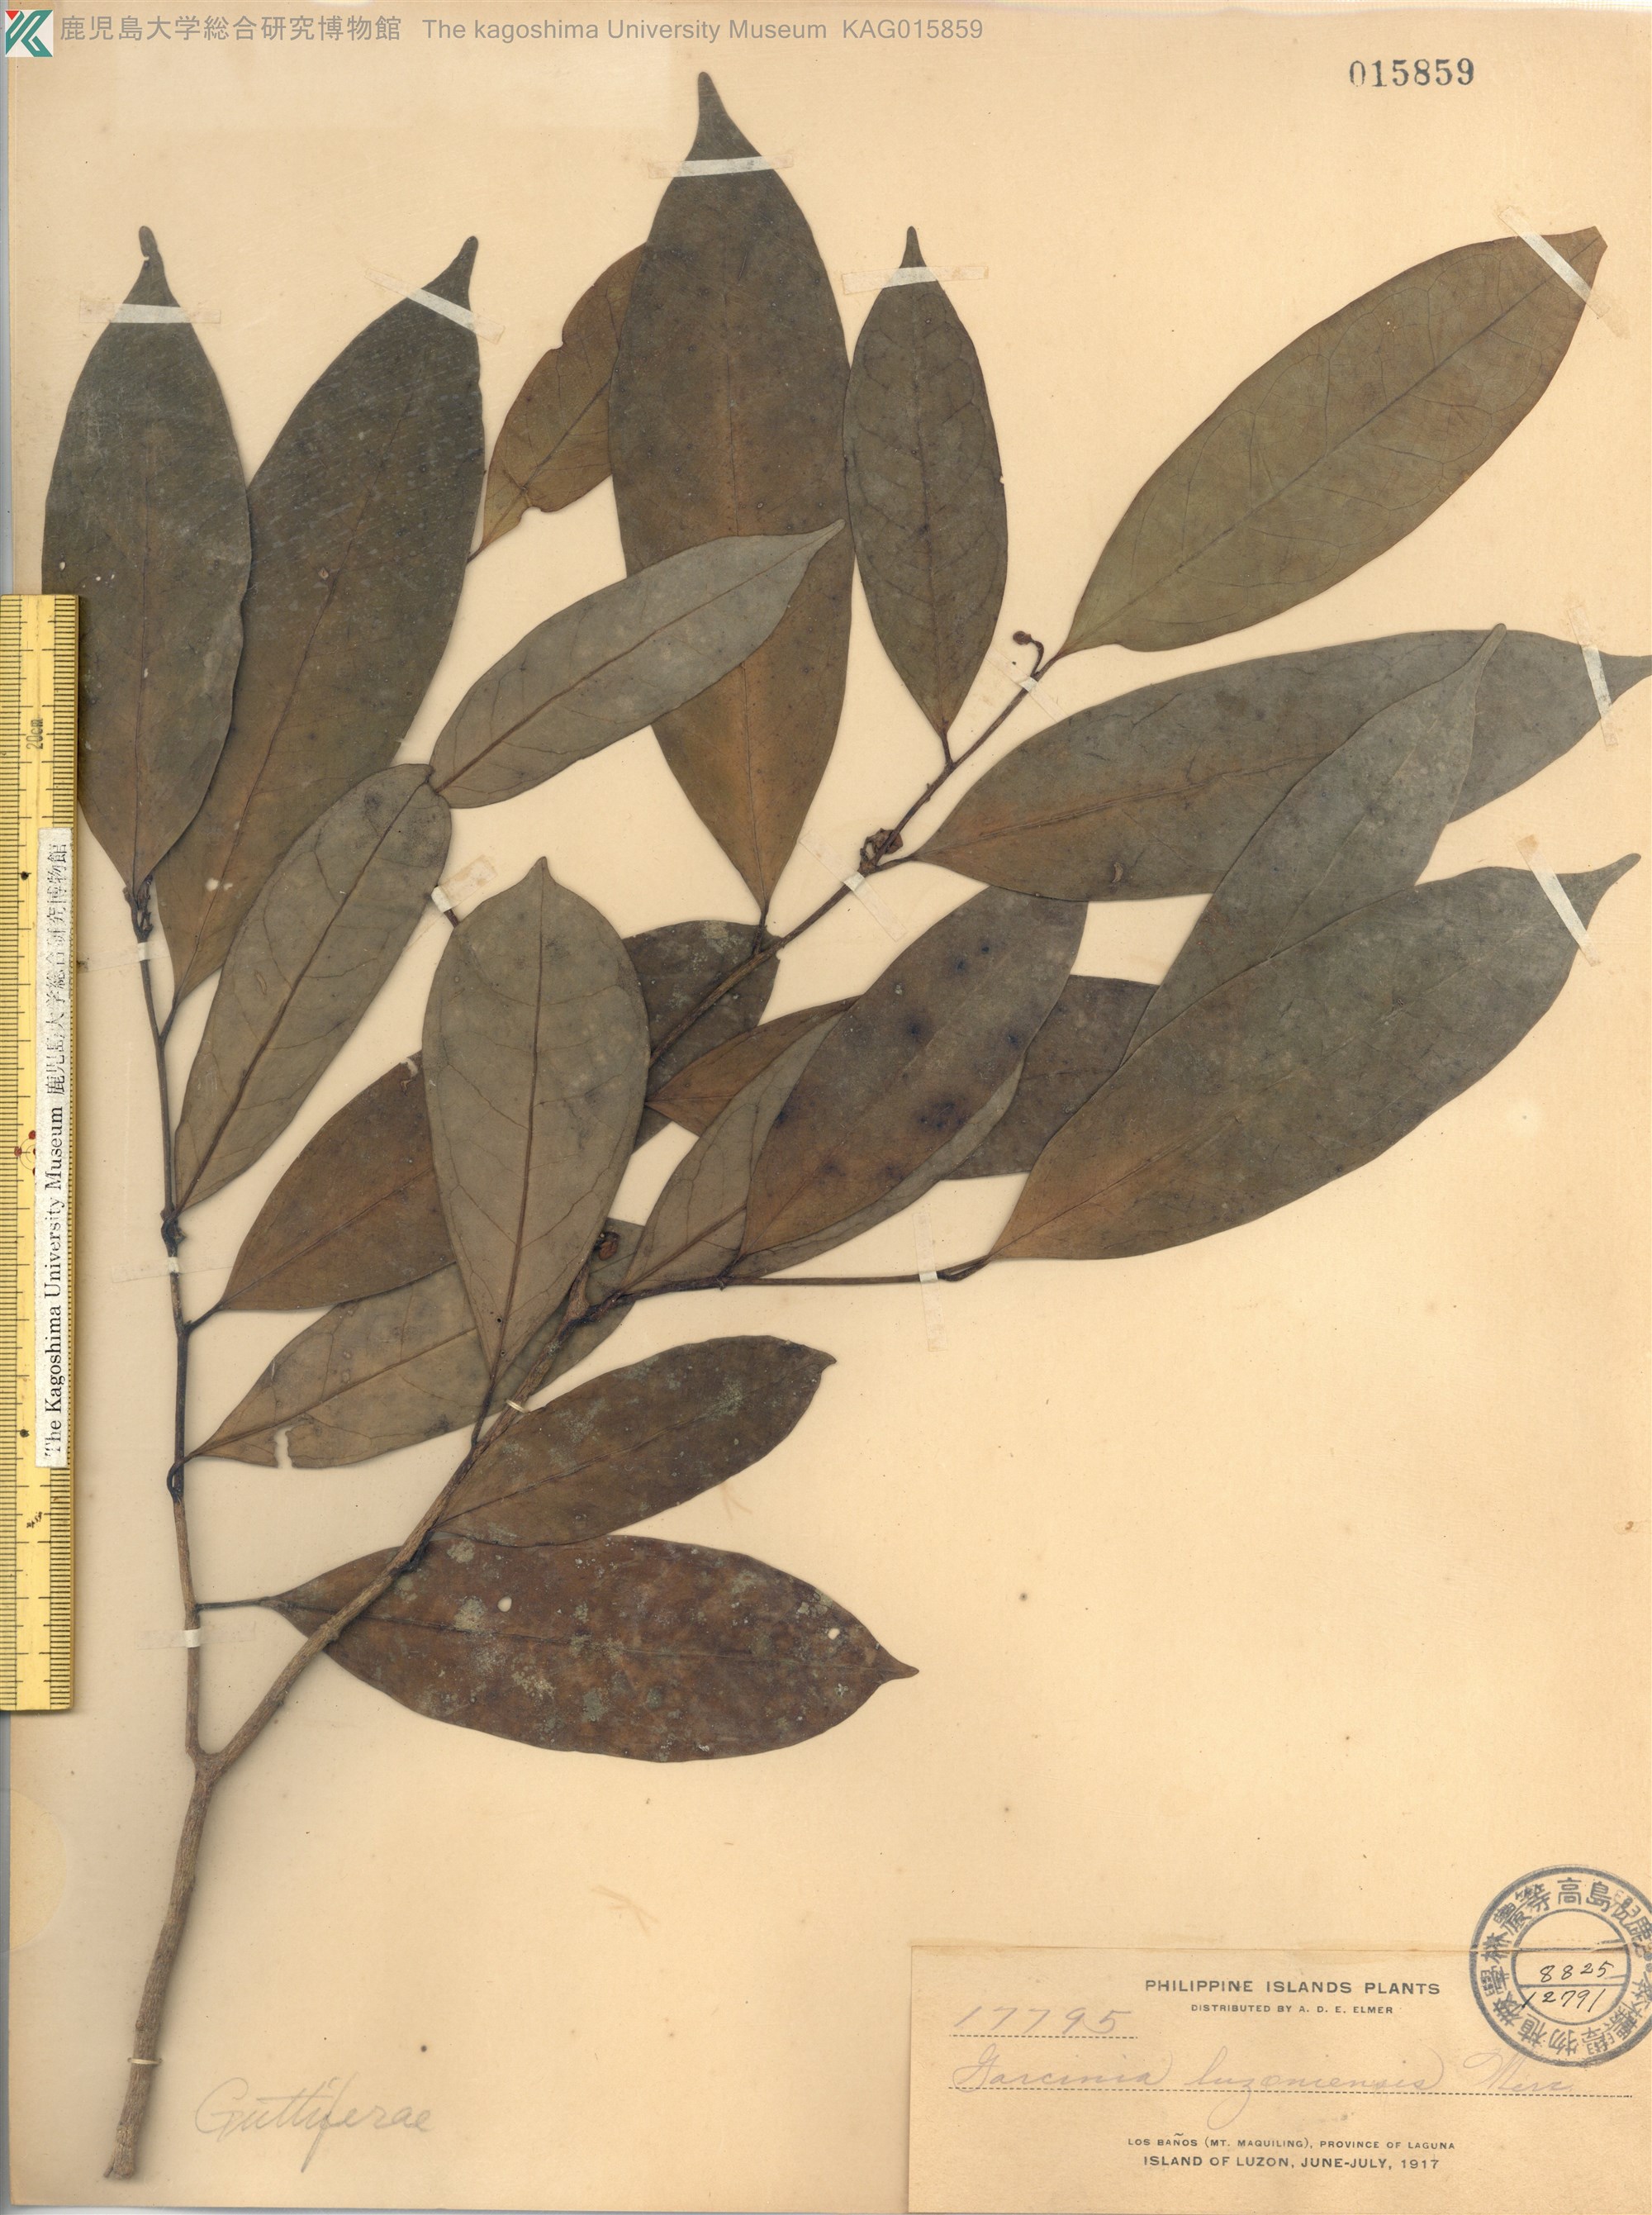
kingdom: Plantae
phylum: Tracheophyta
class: Magnoliopsida
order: Malpighiales
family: Clusiaceae
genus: Garcinia
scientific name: Garcinia luzoniensis
